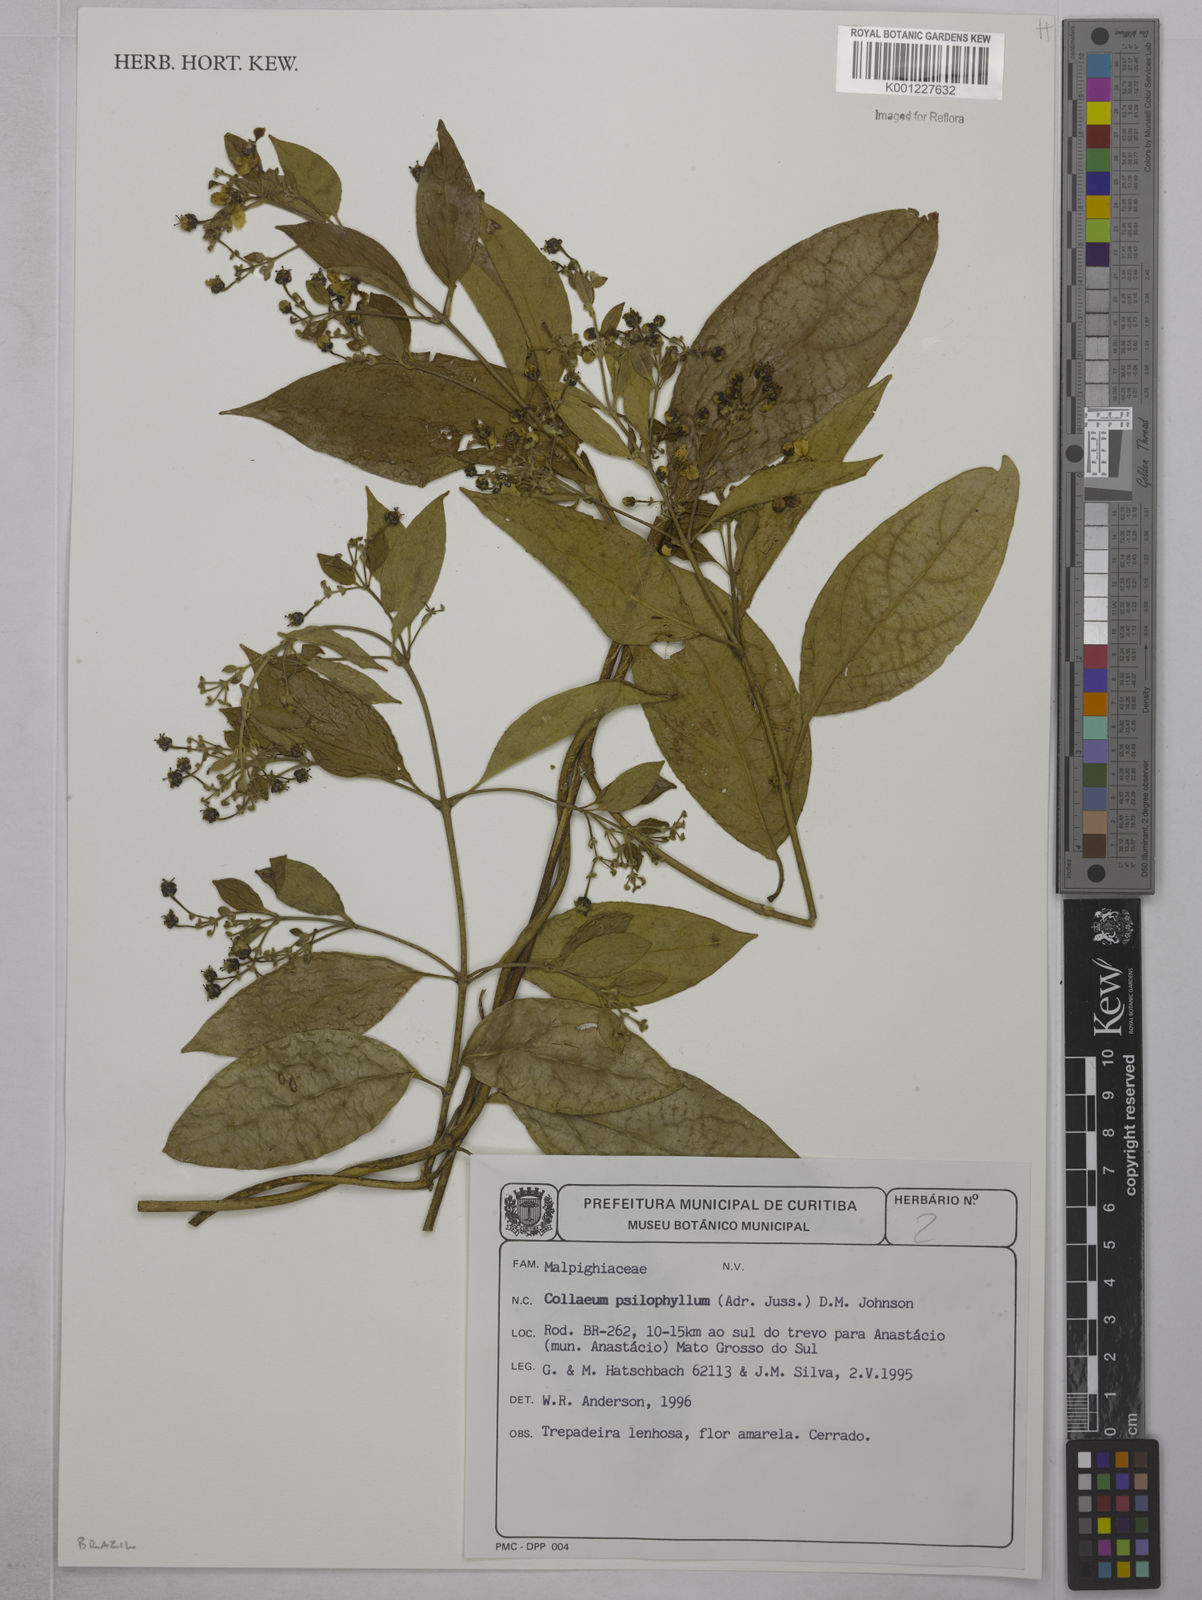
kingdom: Plantae
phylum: Tracheophyta
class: Magnoliopsida
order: Malpighiales
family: Malpighiaceae
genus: Callaeum
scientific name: Callaeum psilophyllum
